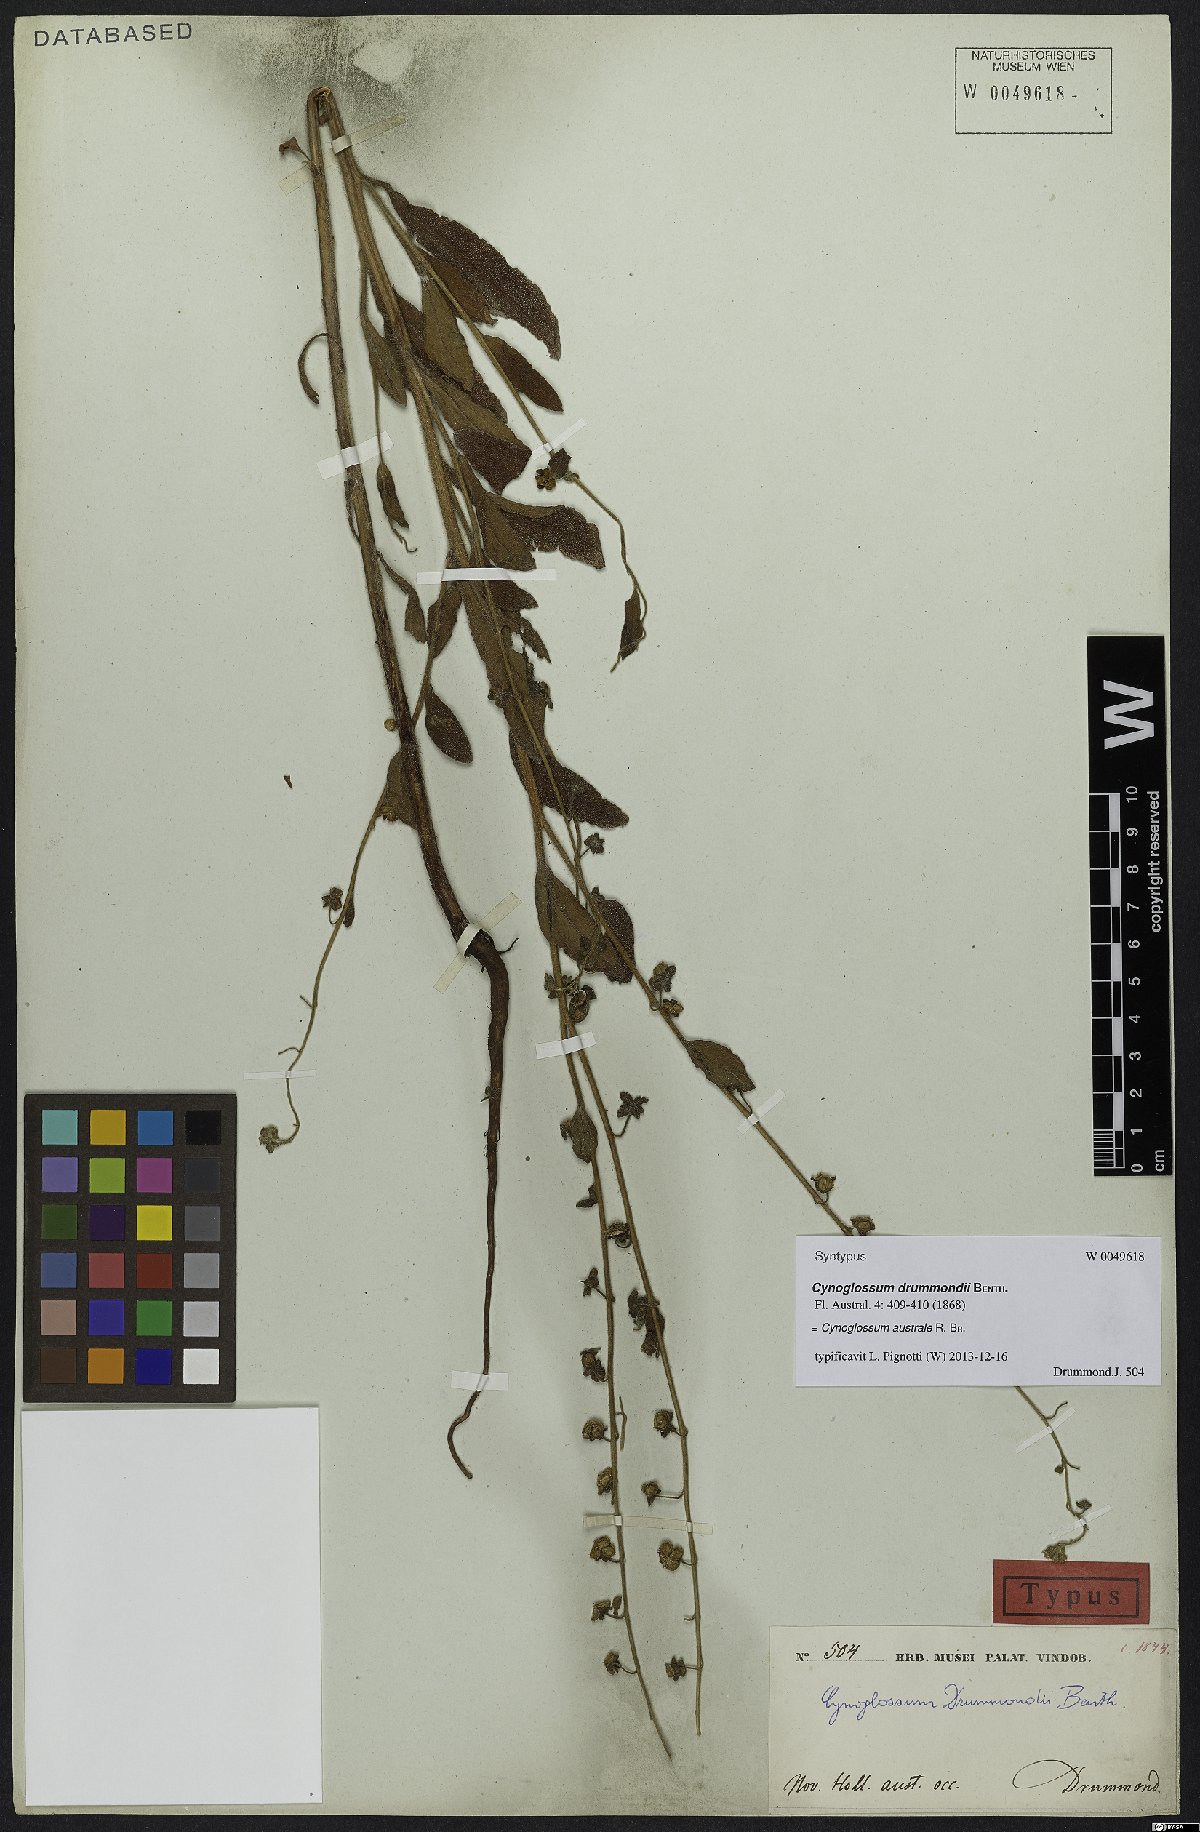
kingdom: Plantae
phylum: Tracheophyta
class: Magnoliopsida
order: Boraginales
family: Boraginaceae
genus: Cynoglossum
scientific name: Cynoglossum australe
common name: Australian hound's-tongue
